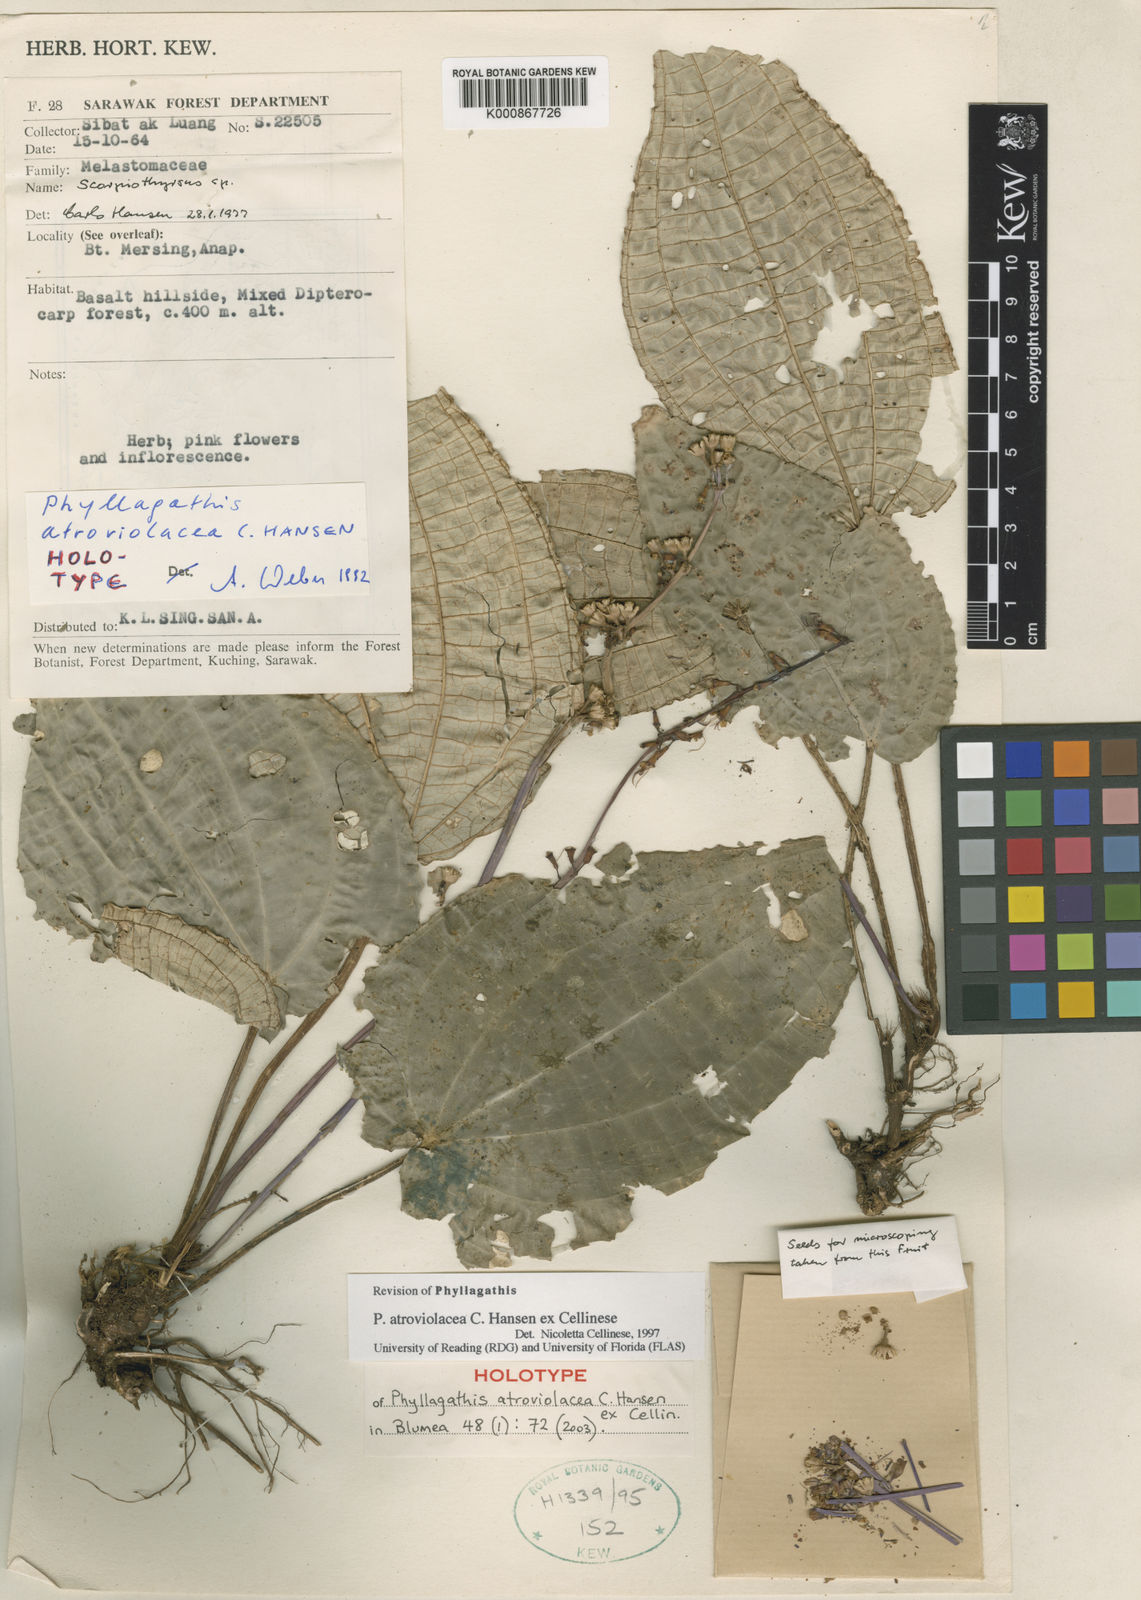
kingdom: Plantae
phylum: Tracheophyta
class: Magnoliopsida
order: Myrtales
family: Melastomataceae
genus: Phyllagathis
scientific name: Phyllagathis atroviolacea
